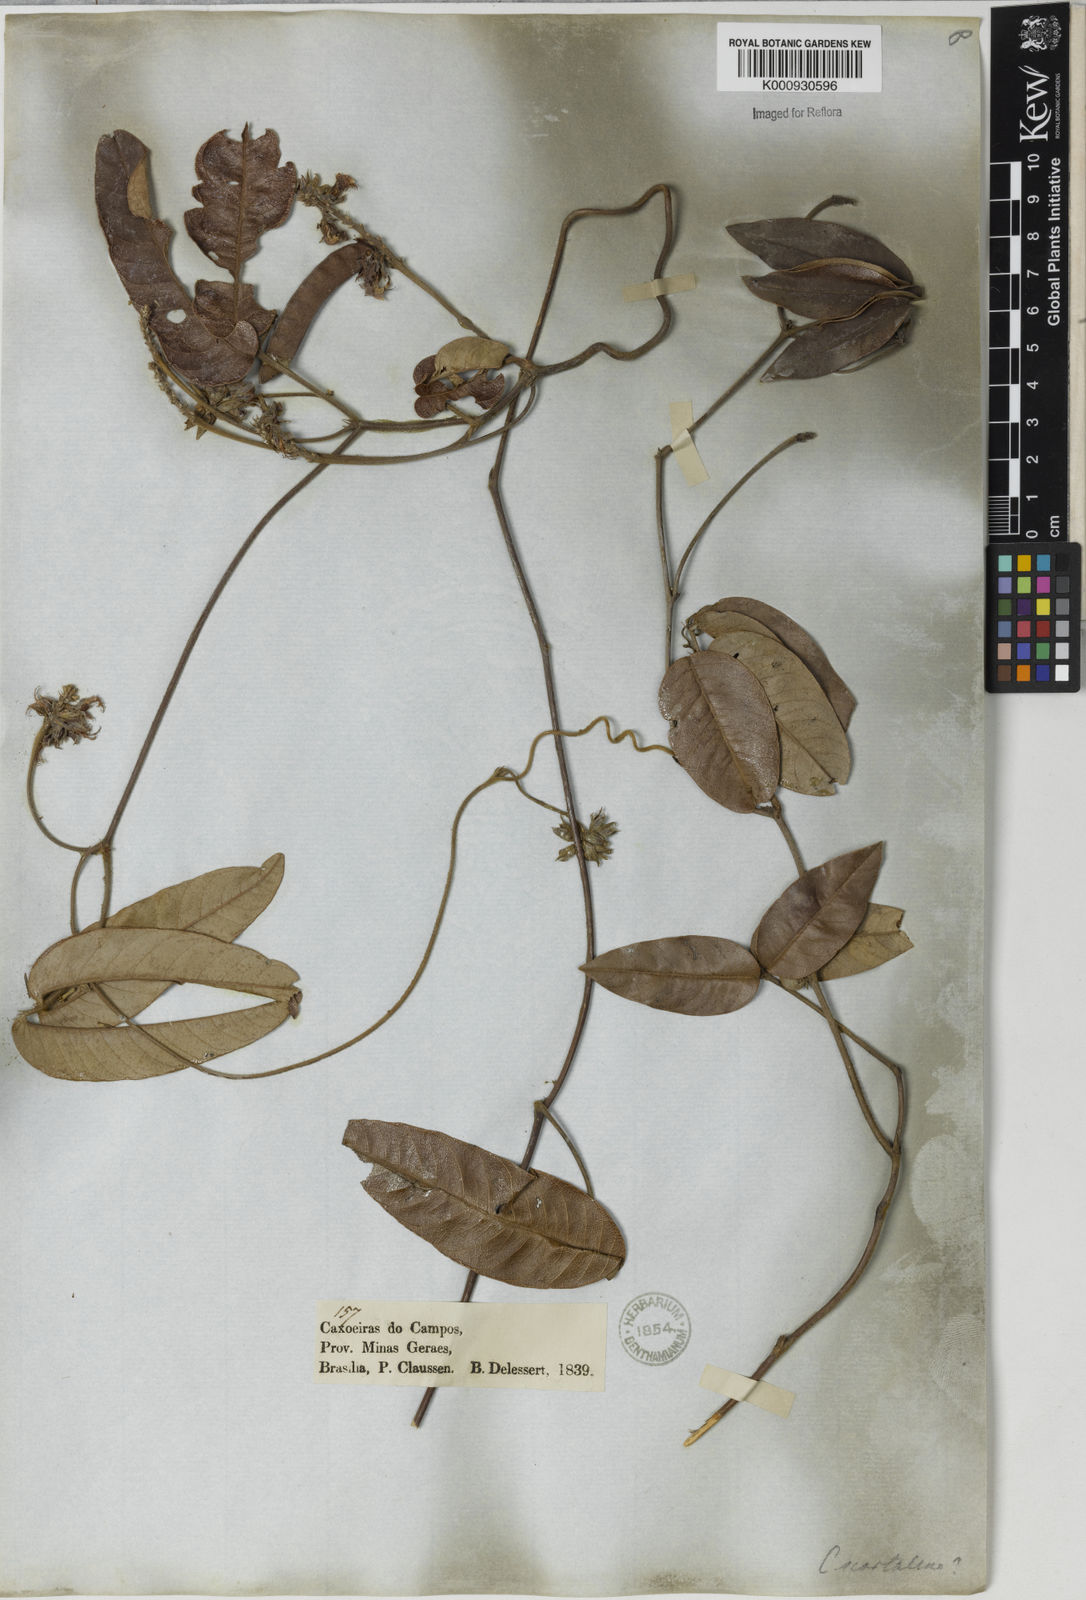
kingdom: Plantae
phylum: Tracheophyta
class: Magnoliopsida
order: Fabales
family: Fabaceae
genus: Betencourtia
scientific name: Betencourtia scarlatina
